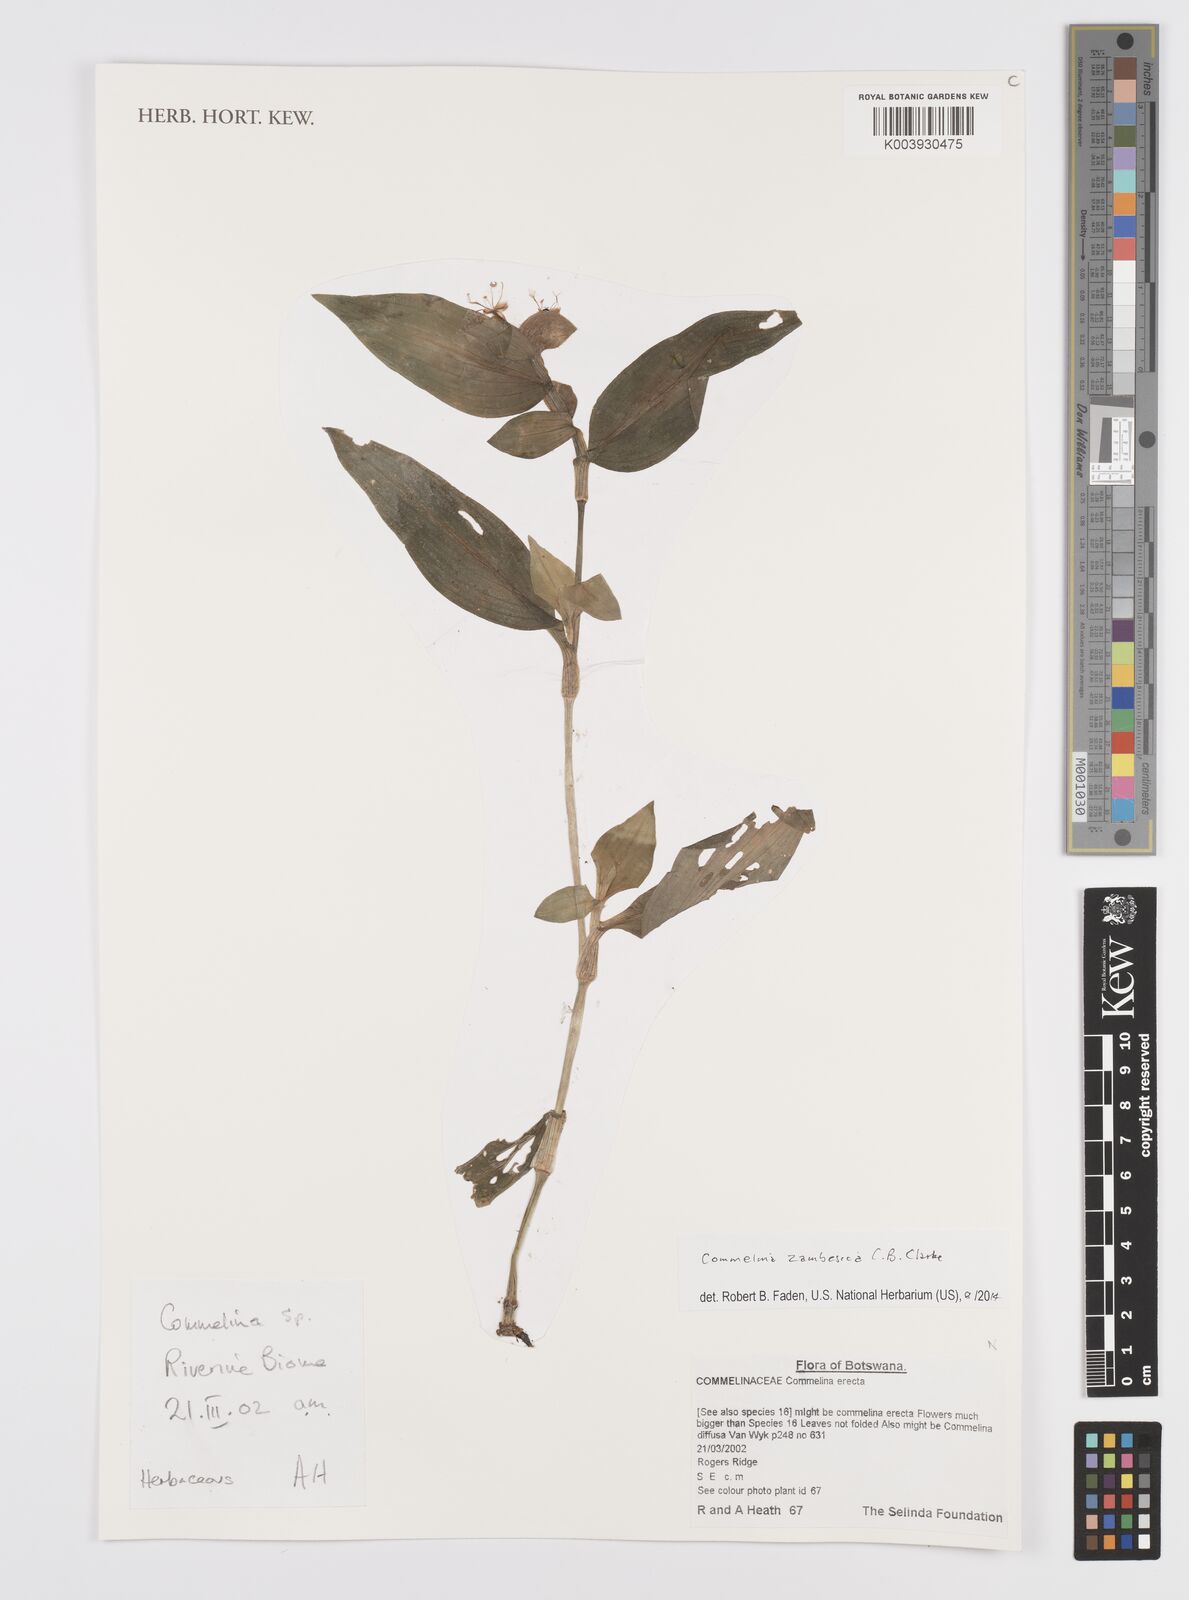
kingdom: Plantae
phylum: Tracheophyta
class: Liliopsida
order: Commelinales
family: Commelinaceae
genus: Commelina
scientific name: Commelina zambesica
